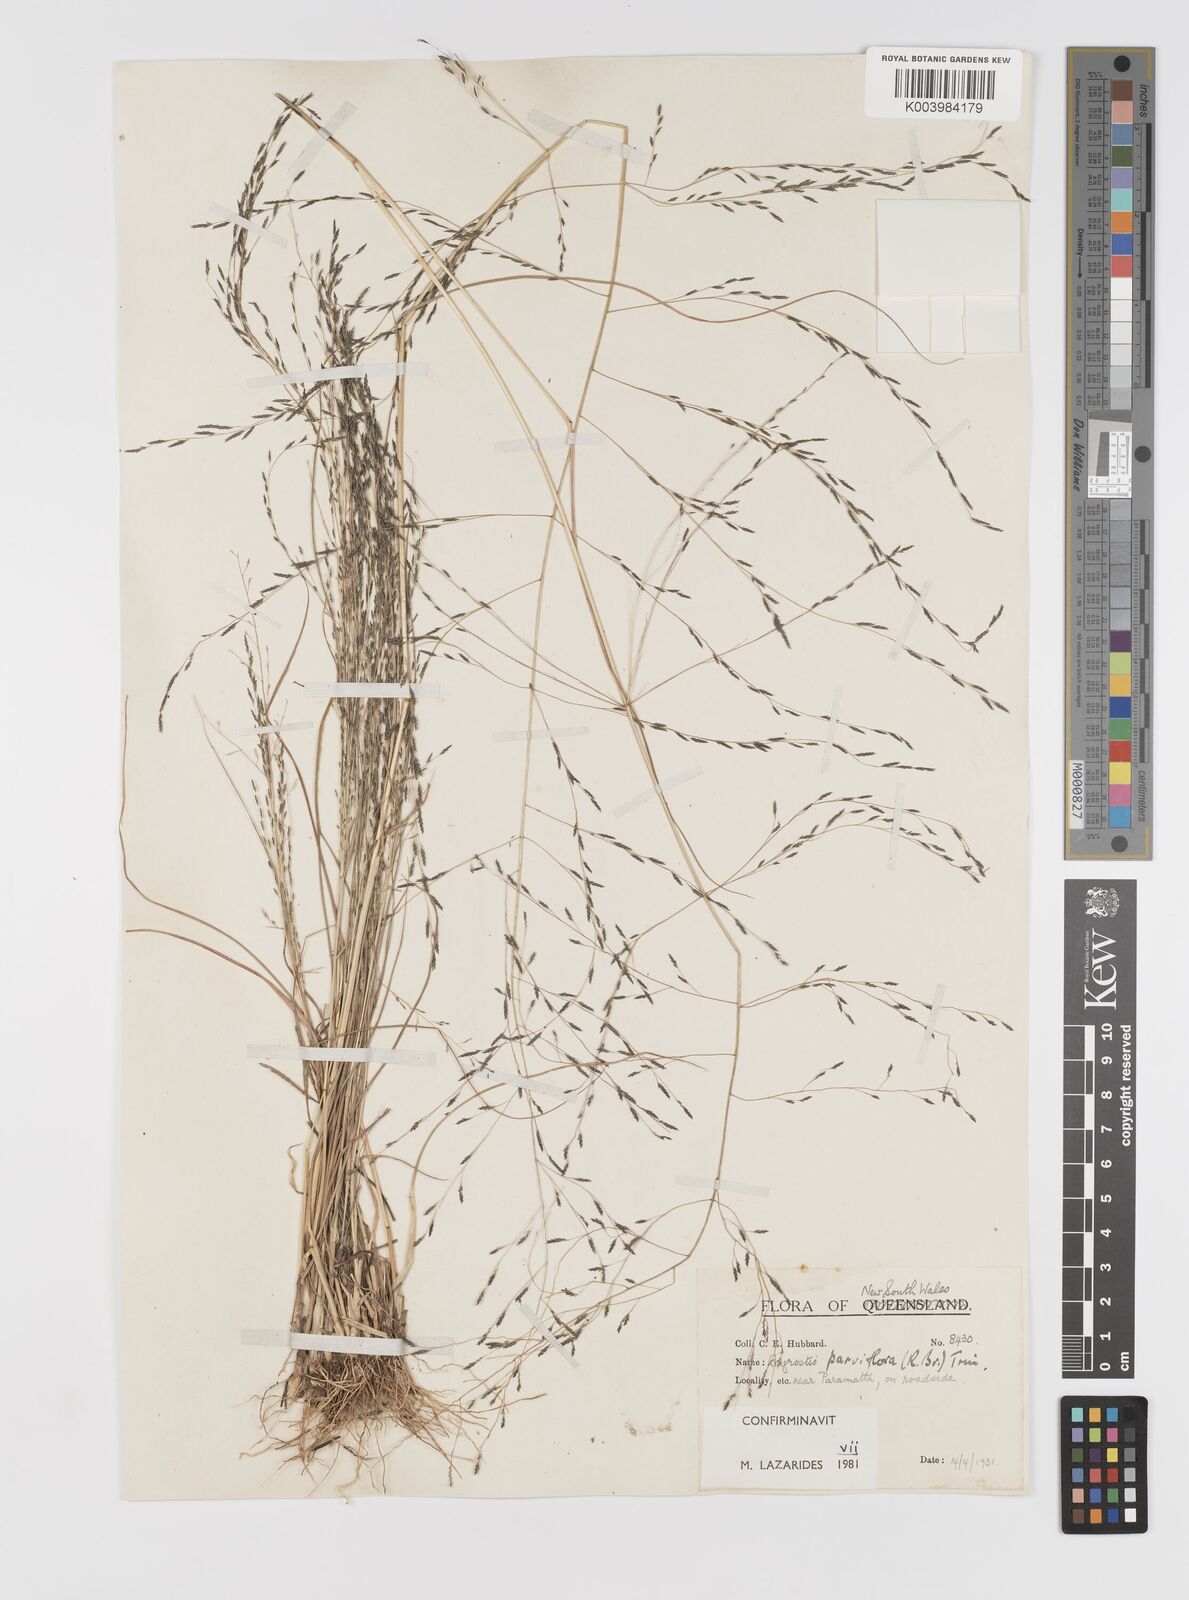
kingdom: Plantae
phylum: Tracheophyta
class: Liliopsida
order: Poales
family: Poaceae
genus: Eragrostis
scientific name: Eragrostis parviflora
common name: Weeping love-grass
